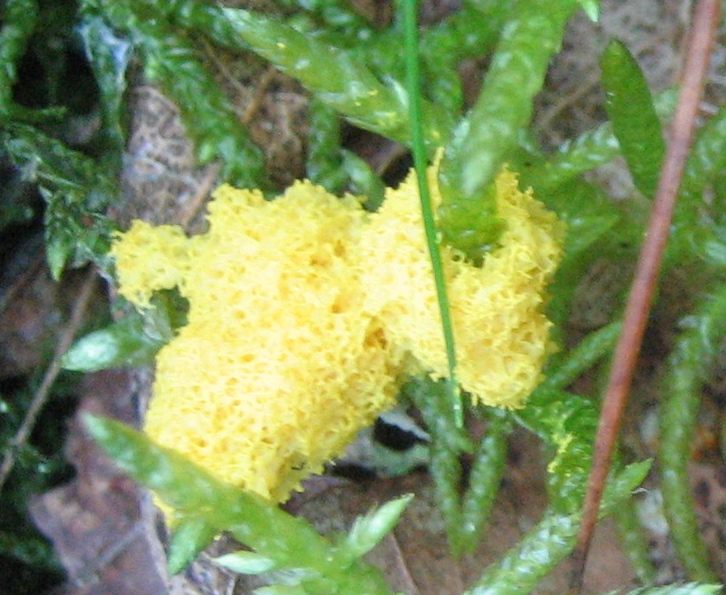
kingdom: Protozoa
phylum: Mycetozoa
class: Myxomycetes
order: Physarales
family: Physaraceae
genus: Fuligo
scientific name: Fuligo septica
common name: gul troldsmør
